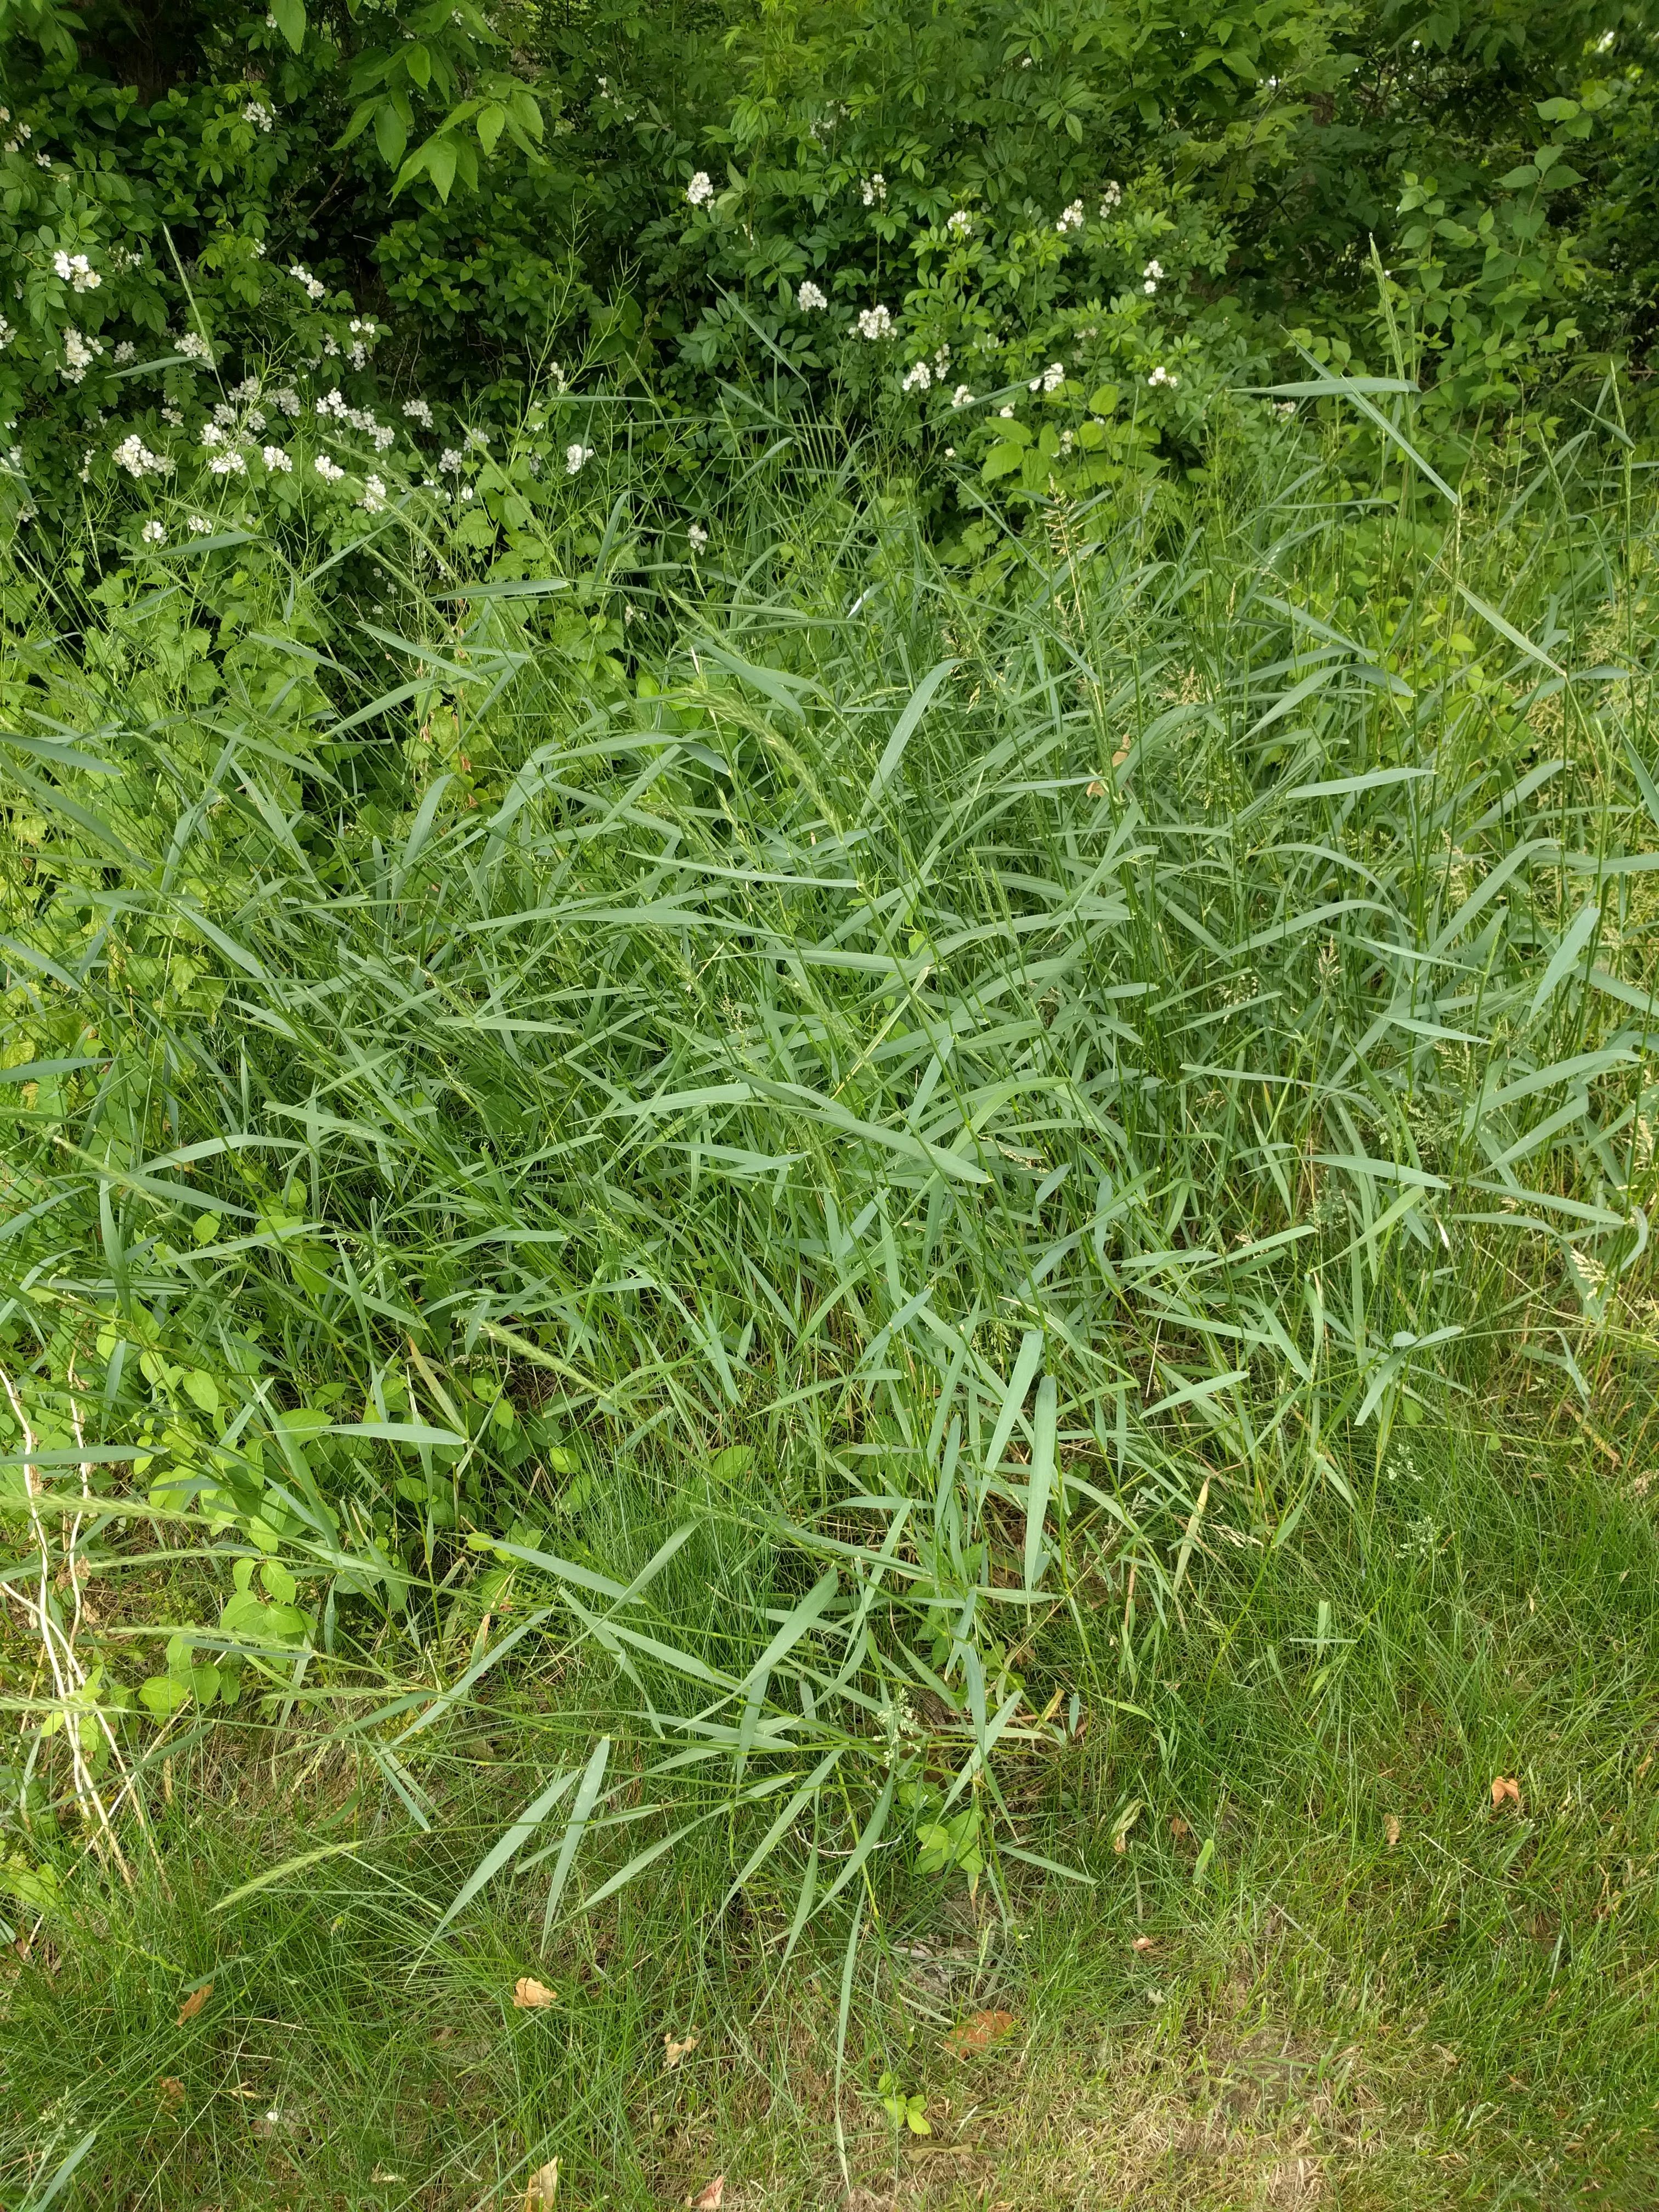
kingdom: Plantae
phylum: Tracheophyta
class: Liliopsida
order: Poales
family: Poaceae
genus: Elymus
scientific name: Elymus repens
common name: Quackgrass
